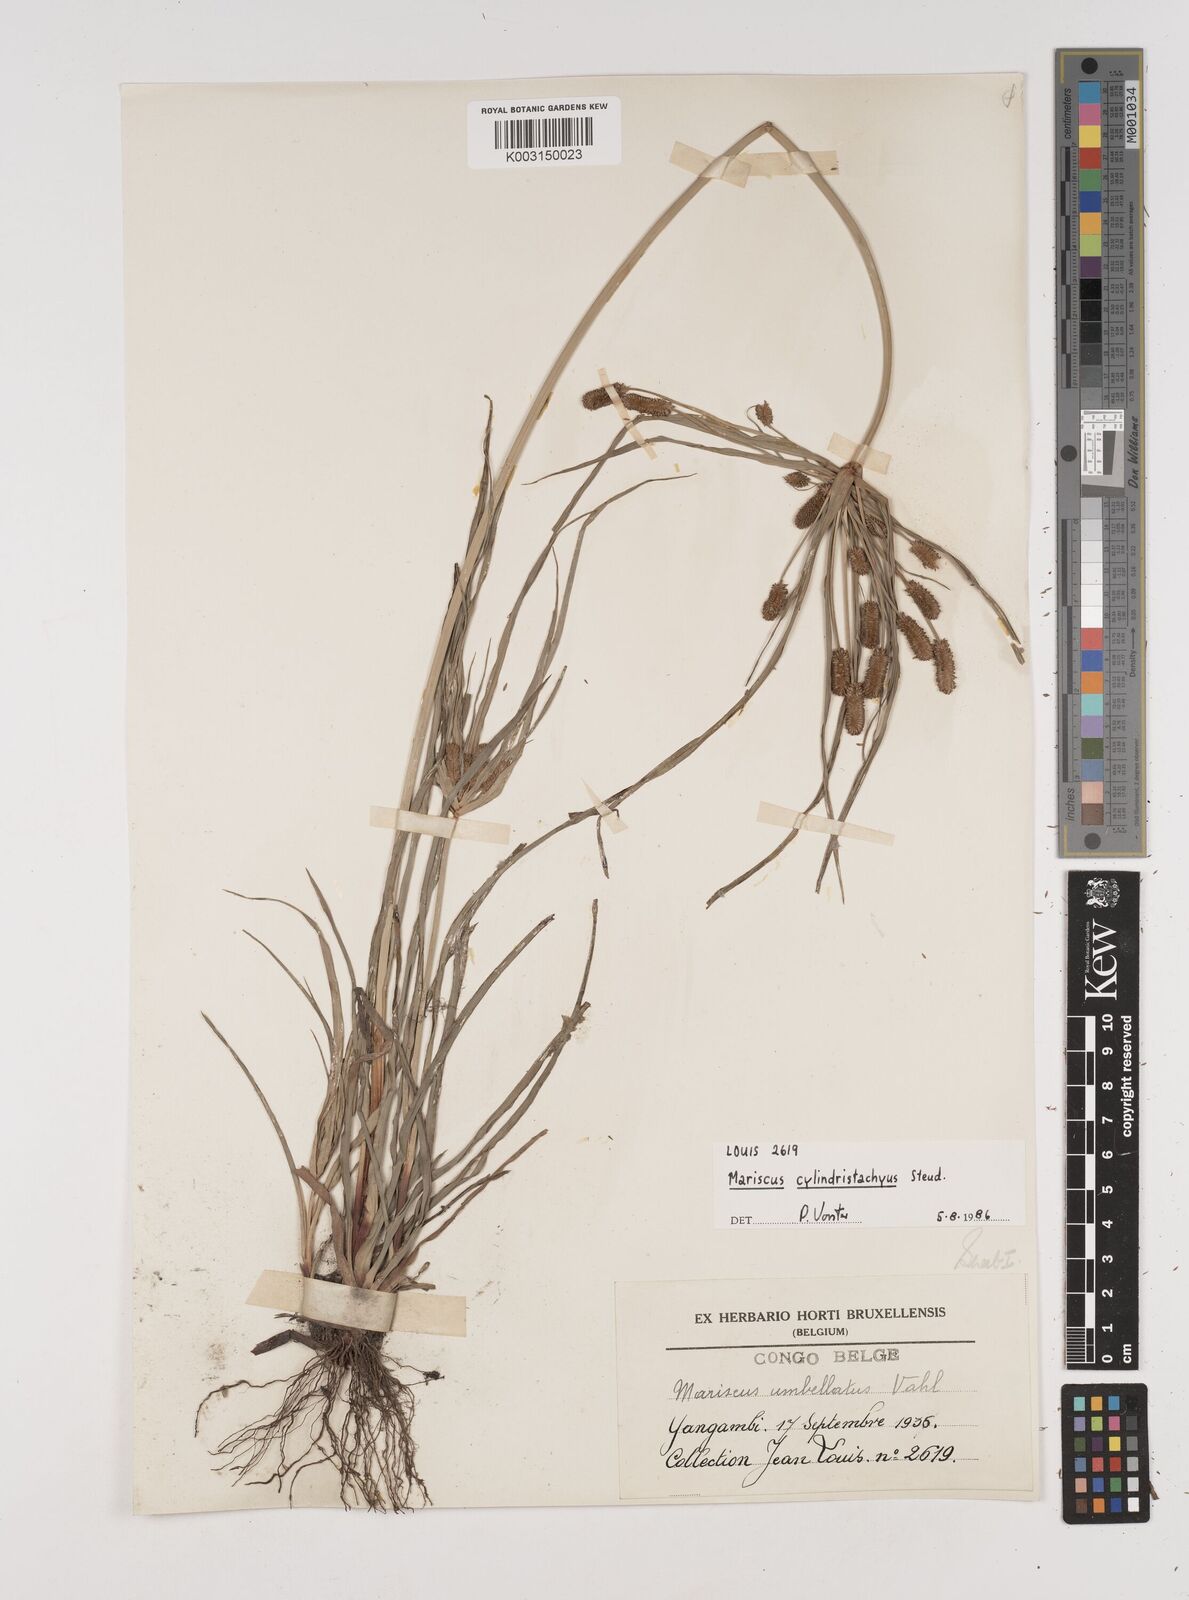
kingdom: Plantae
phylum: Tracheophyta
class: Liliopsida
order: Poales
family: Cyperaceae
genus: Cyperus
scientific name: Cyperus cyperoides
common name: Pacific island flat sedge
